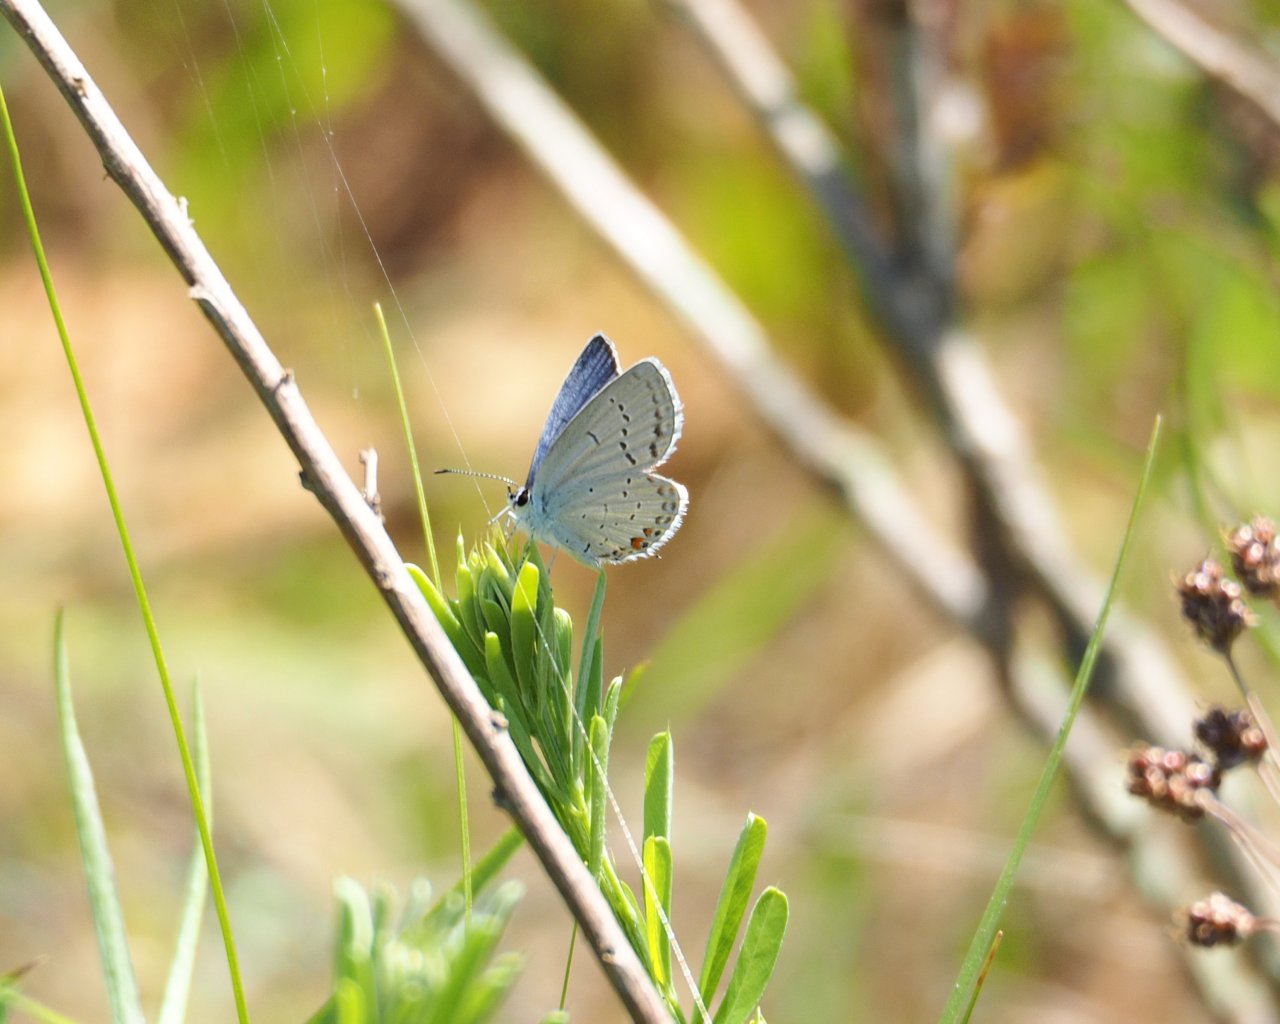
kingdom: Animalia
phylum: Arthropoda
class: Insecta
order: Lepidoptera
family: Lycaenidae
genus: Elkalyce
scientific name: Elkalyce comyntas
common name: Eastern Tailed-Blue
